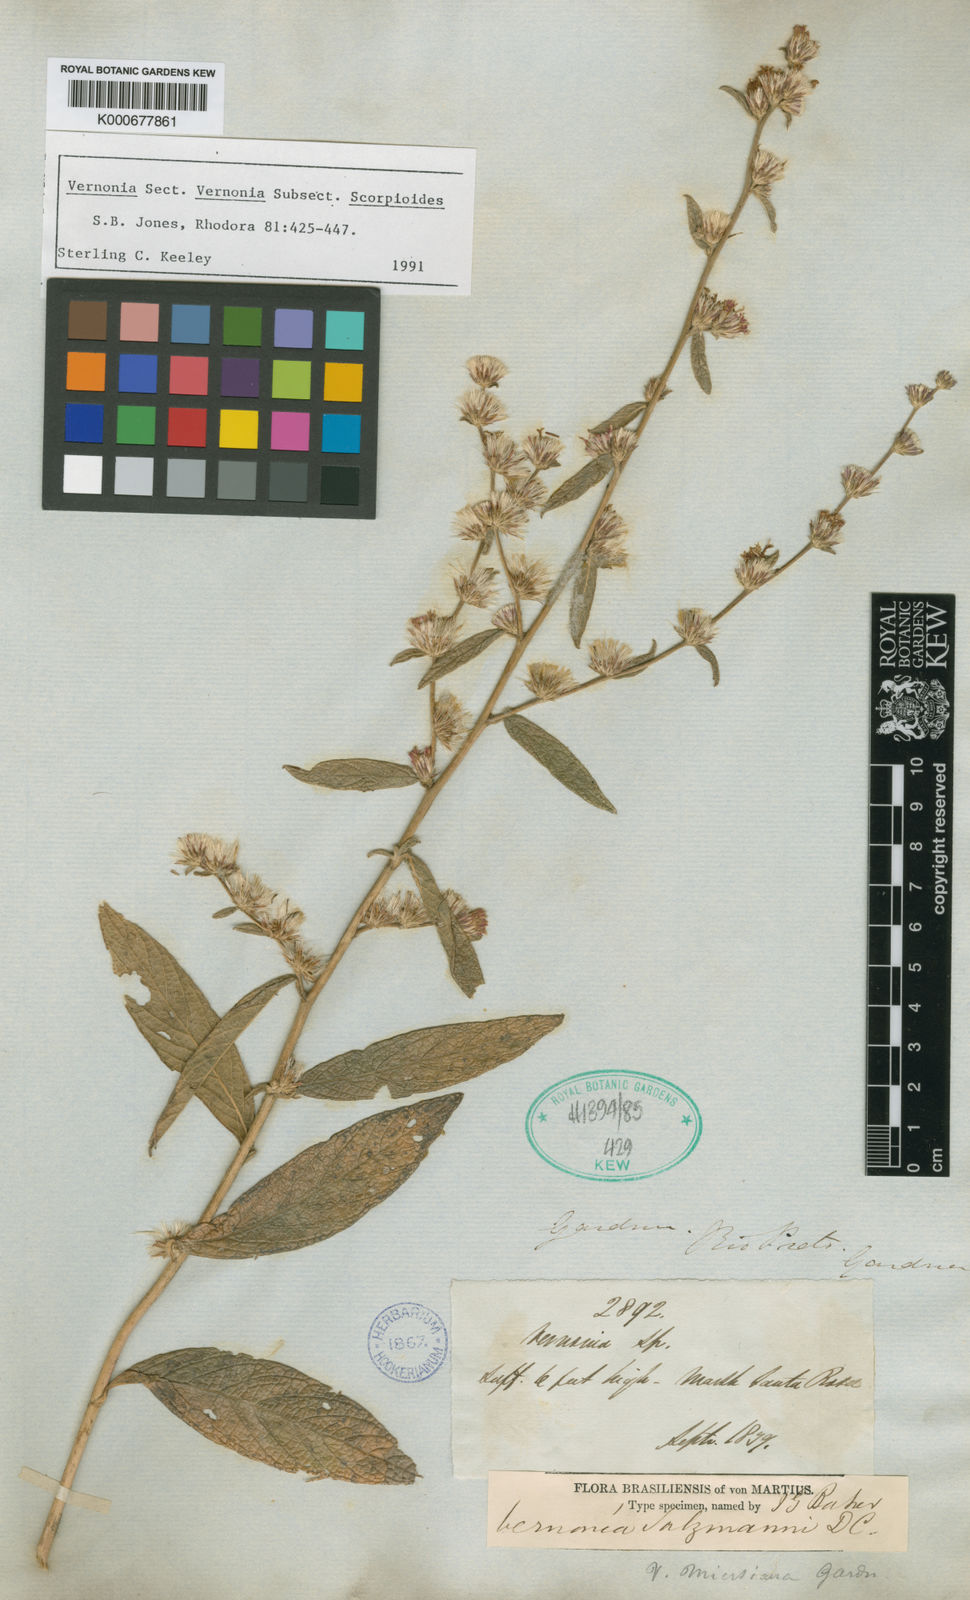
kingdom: Plantae
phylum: Tracheophyta
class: Magnoliopsida
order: Asterales
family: Asteraceae
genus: Lepidaploa
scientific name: Lepidaploa salzmannii
